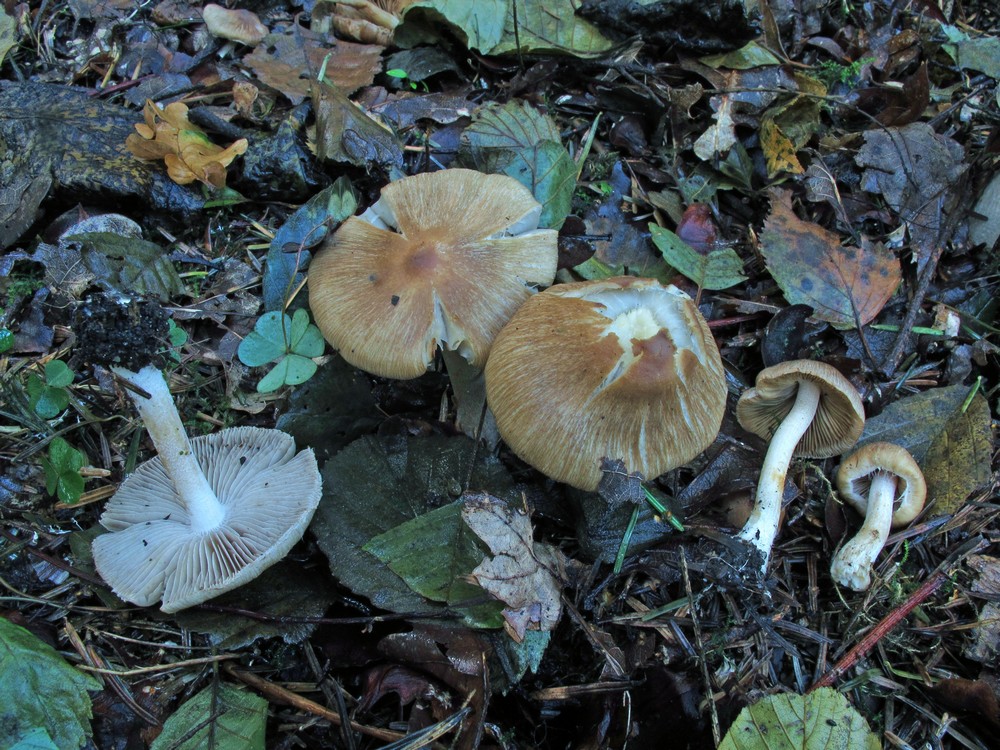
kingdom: Fungi
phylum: Basidiomycota
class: Agaricomycetes
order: Agaricales
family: Inocybaceae
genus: Inocybe
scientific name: Inocybe
